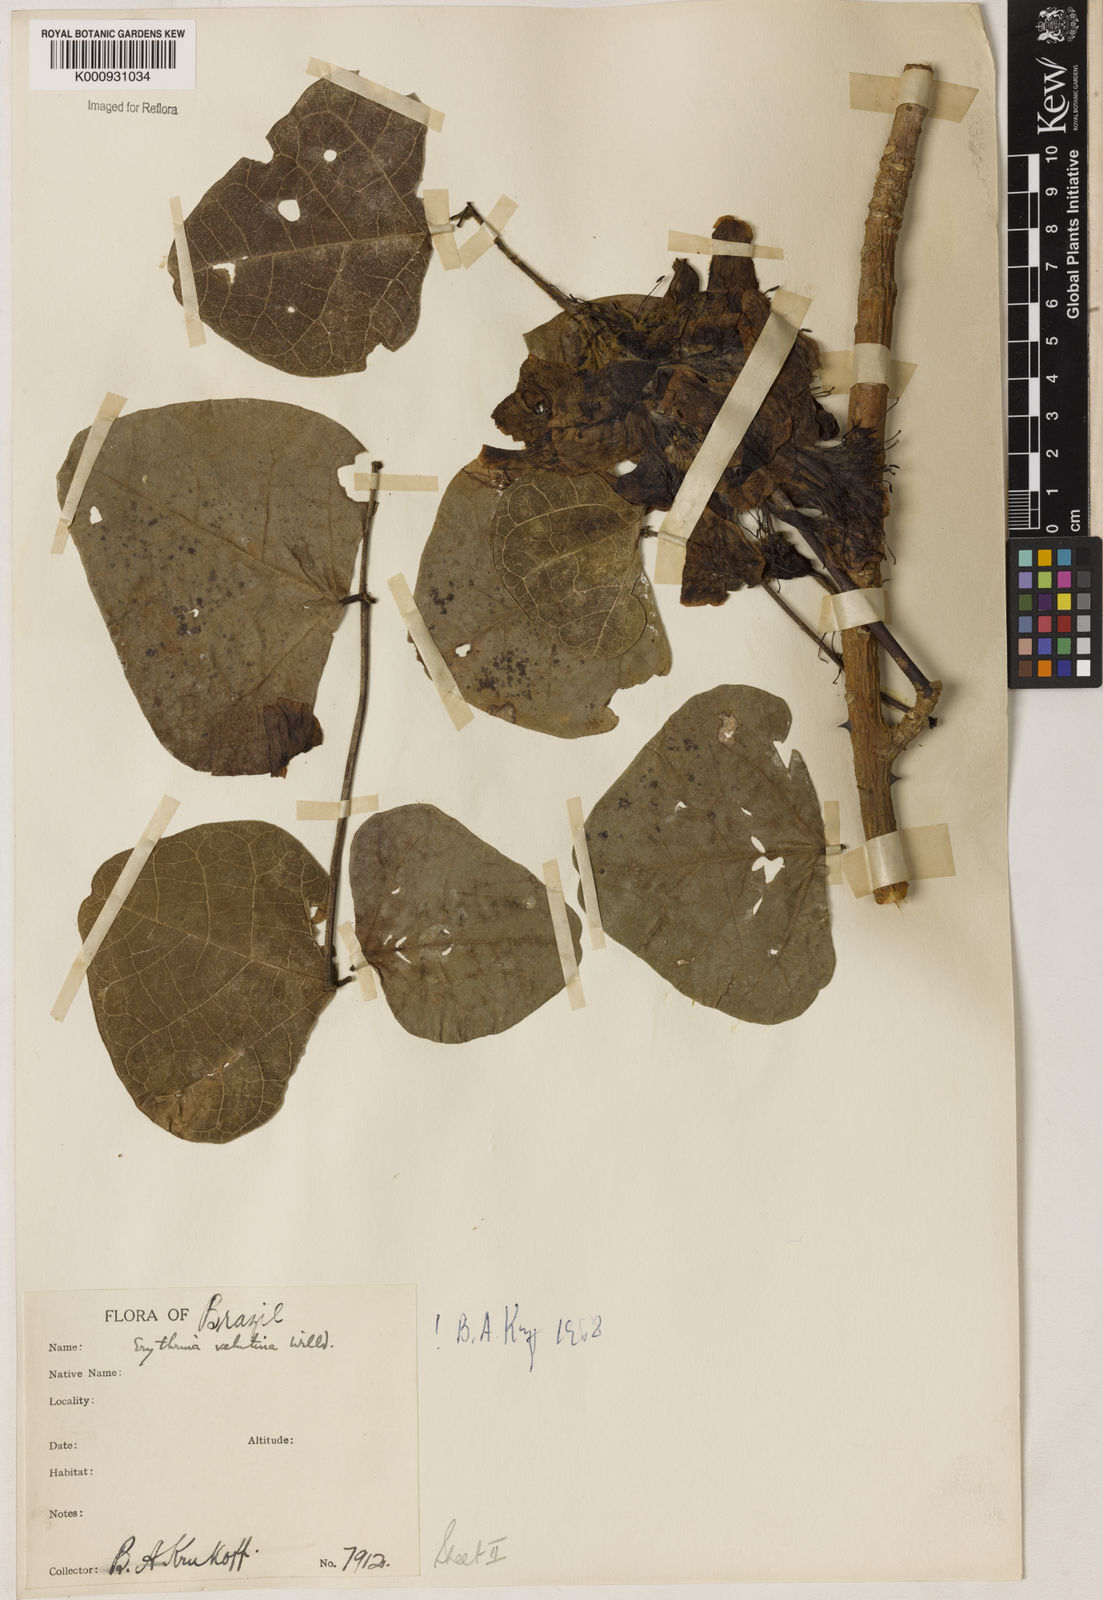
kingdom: Plantae
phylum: Tracheophyta
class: Magnoliopsida
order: Fabales
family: Fabaceae
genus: Erythrina
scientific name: Erythrina velutina
